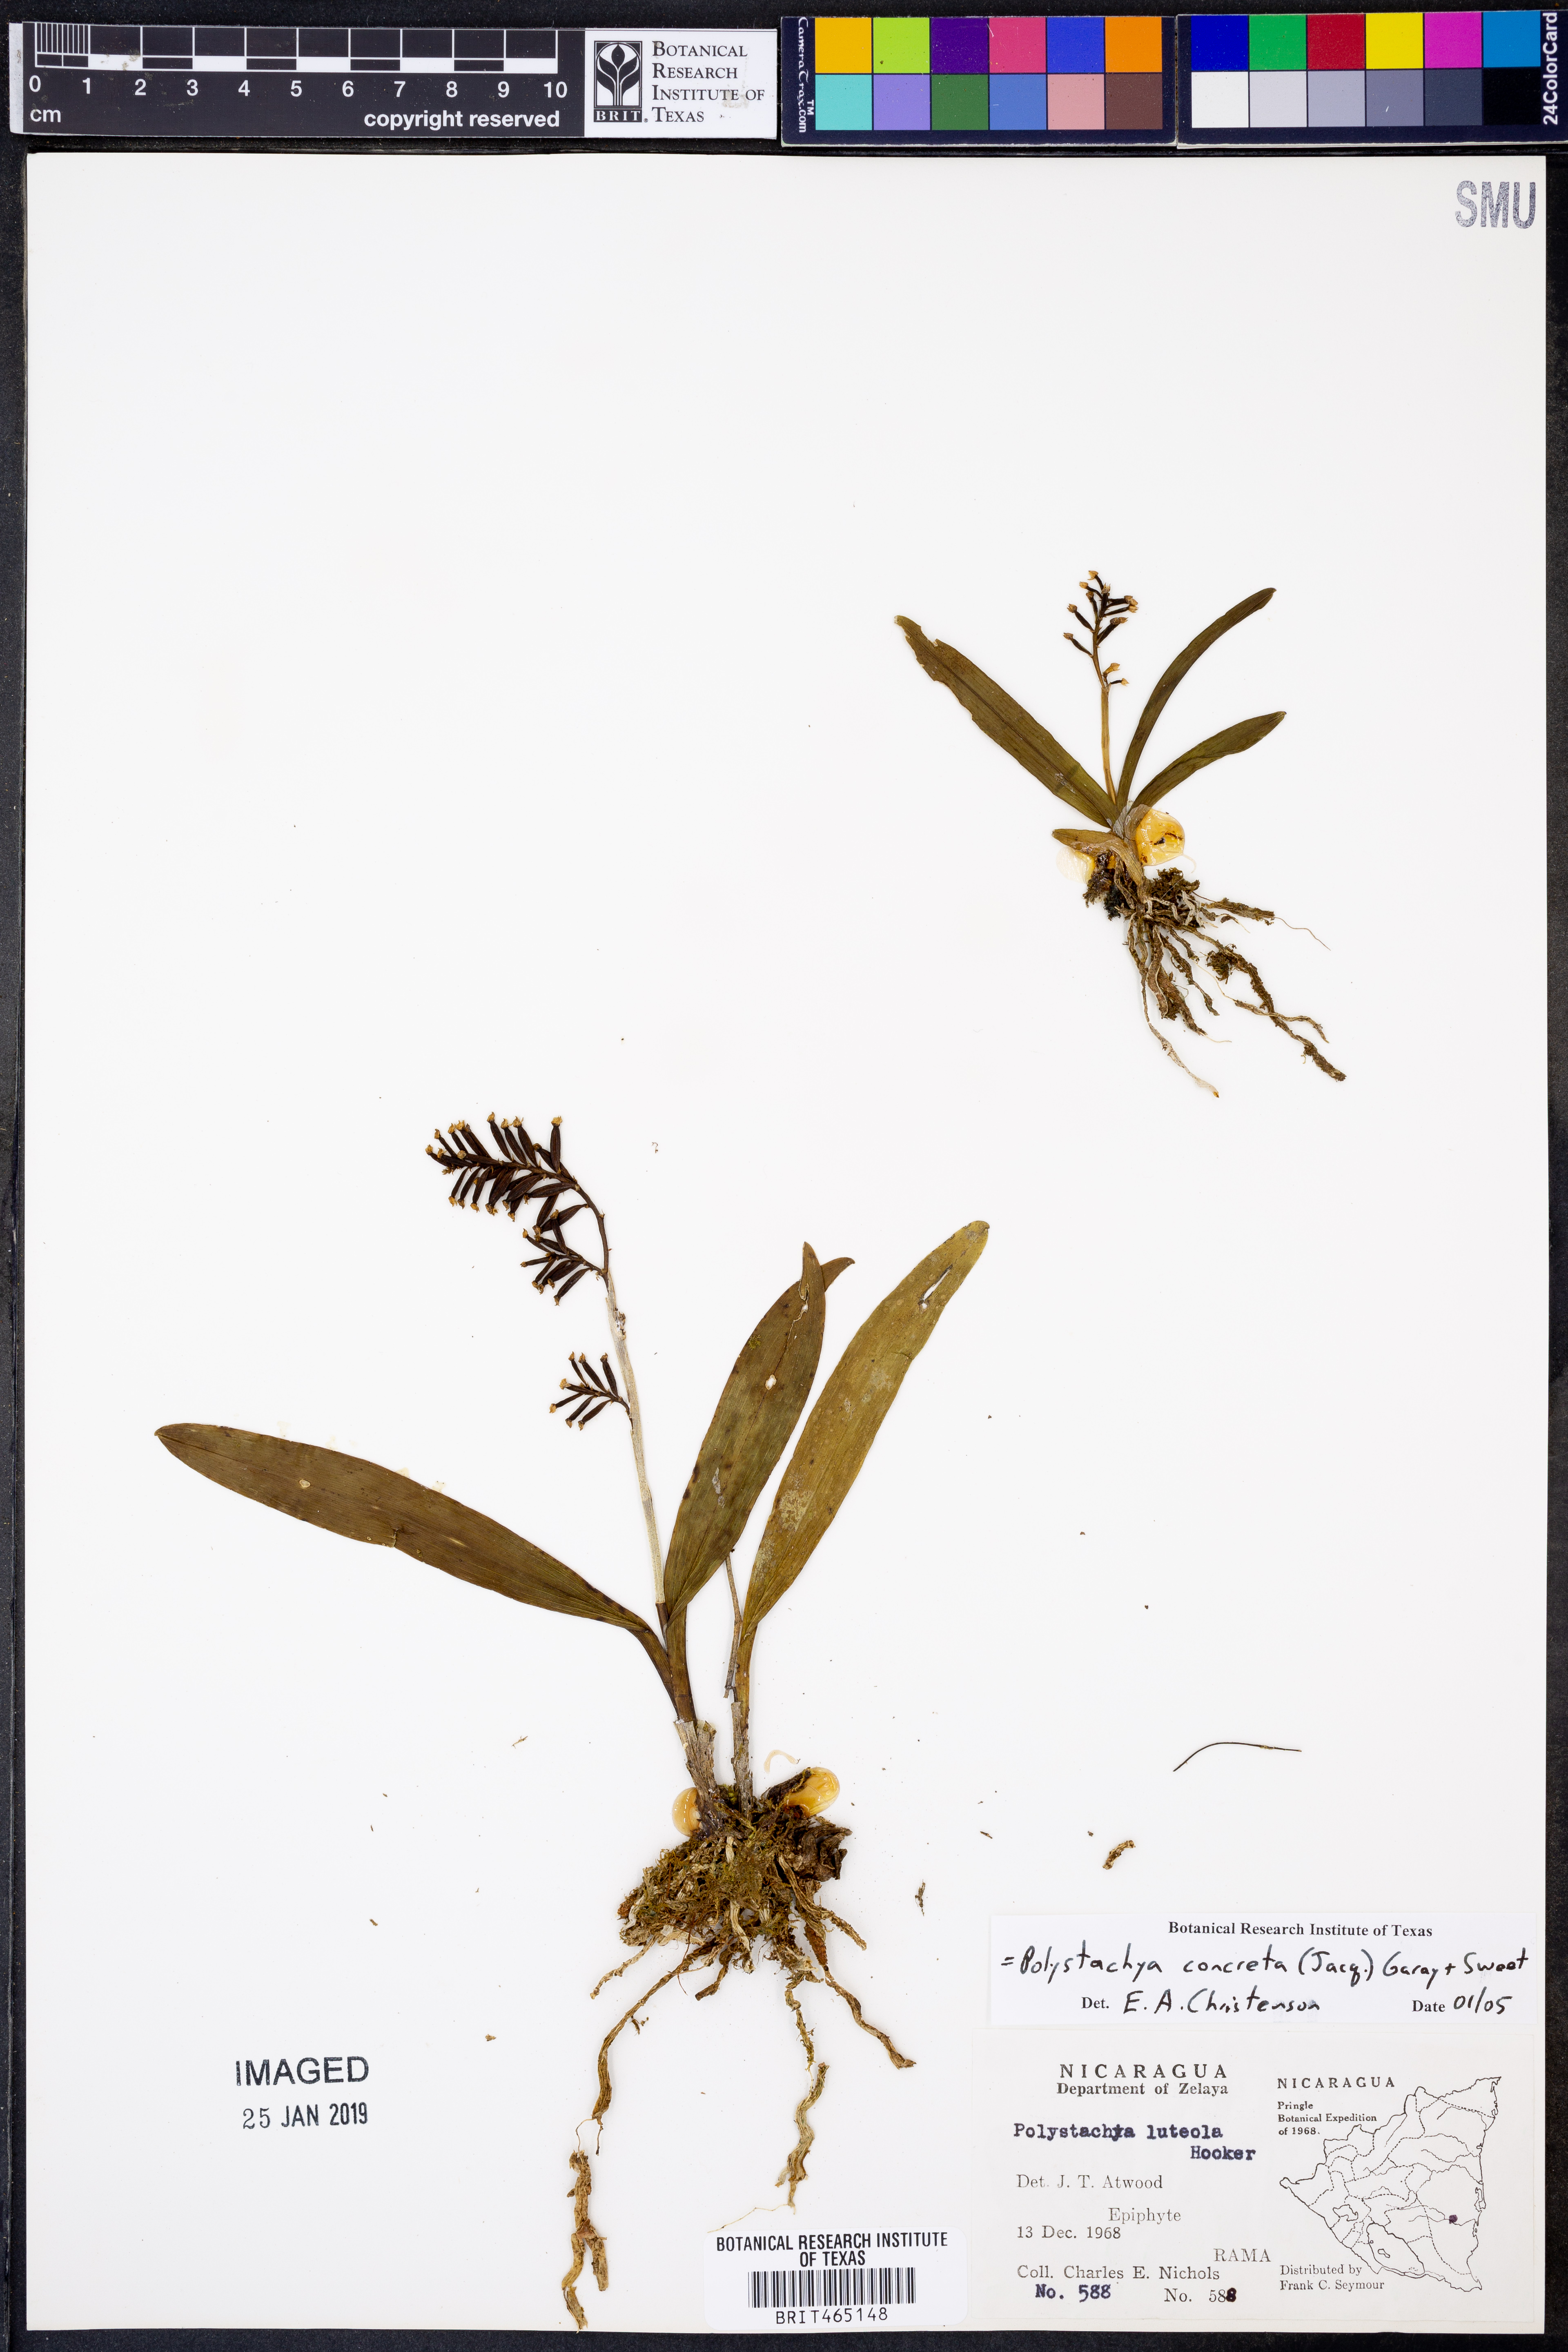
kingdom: Plantae
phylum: Tracheophyta
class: Liliopsida
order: Asparagales
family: Orchidaceae
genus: Polystachya
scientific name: Polystachya concreta
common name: Greater yellowspike orchid
